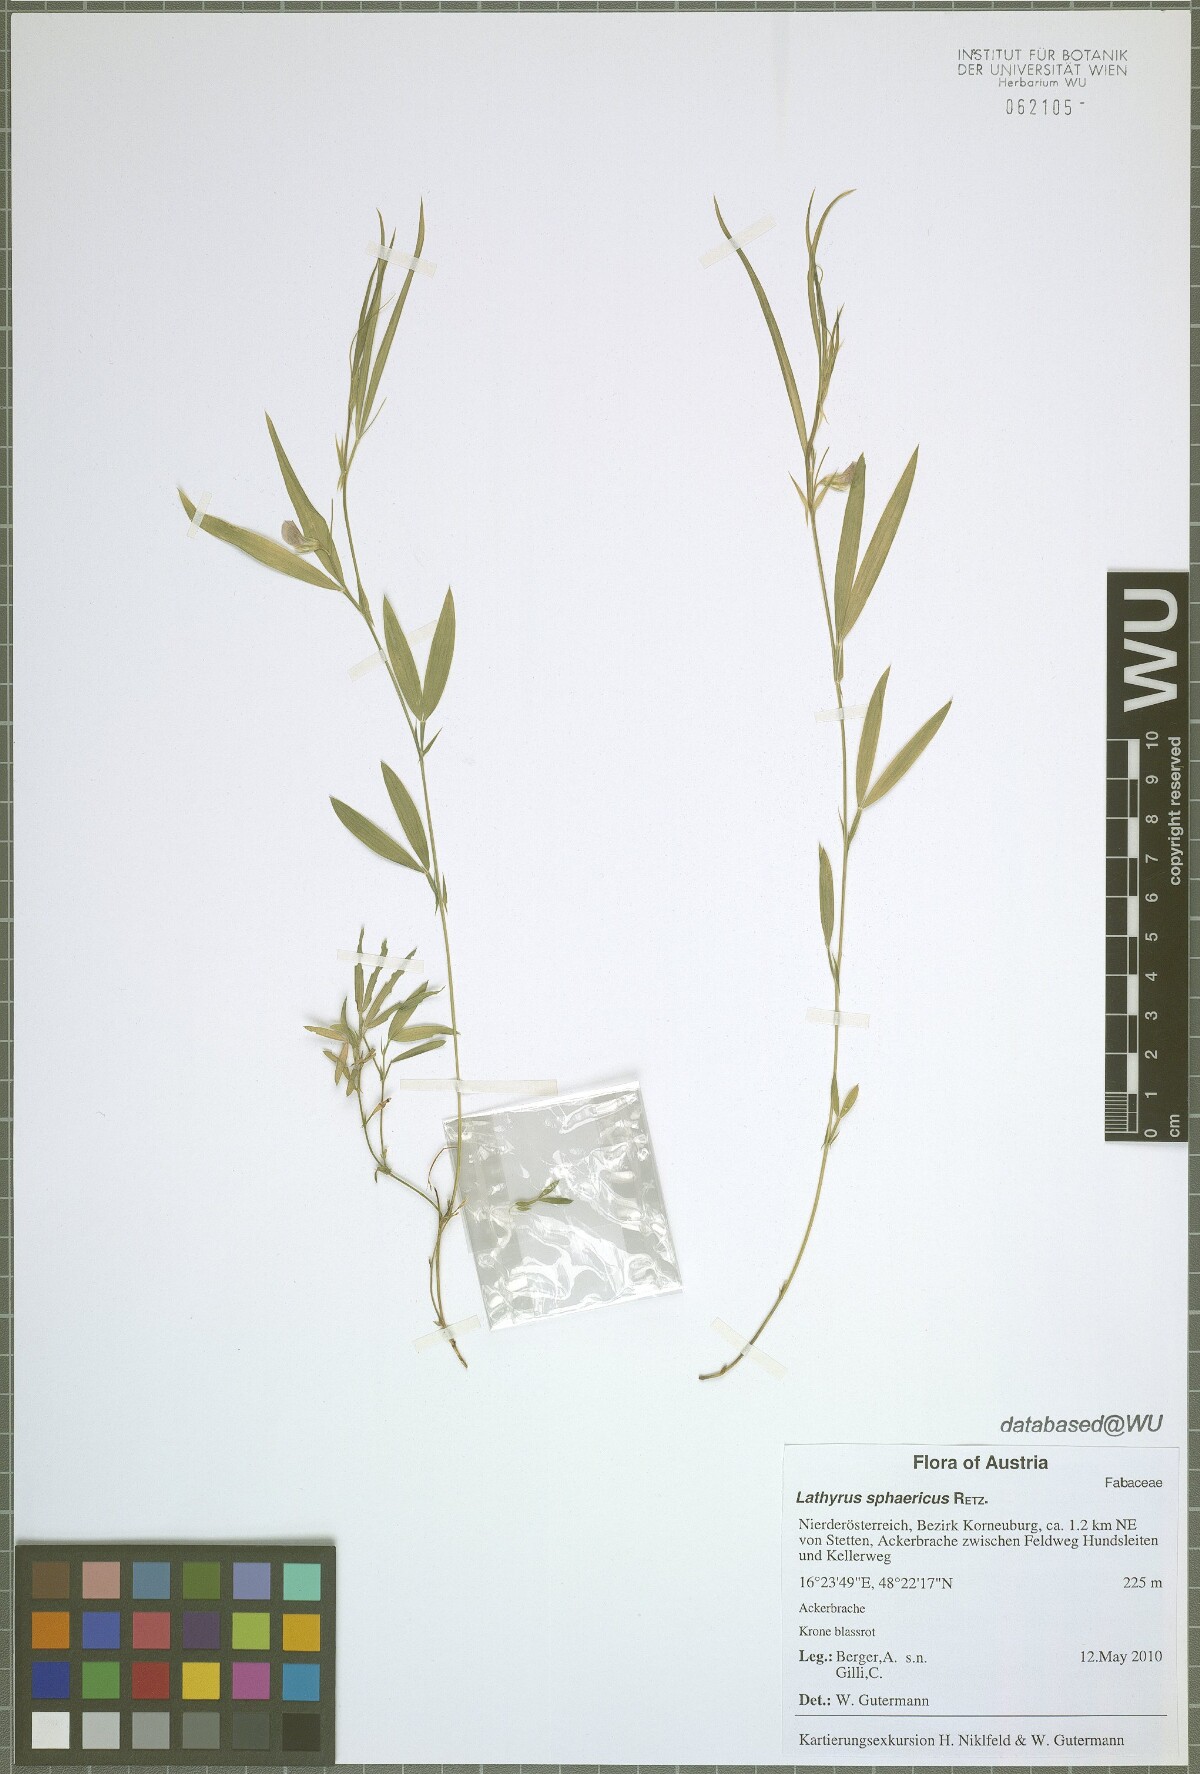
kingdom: Plantae
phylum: Tracheophyta
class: Magnoliopsida
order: Fabales
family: Fabaceae
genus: Lathyrus
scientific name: Lathyrus sphaericus
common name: Grass pea
